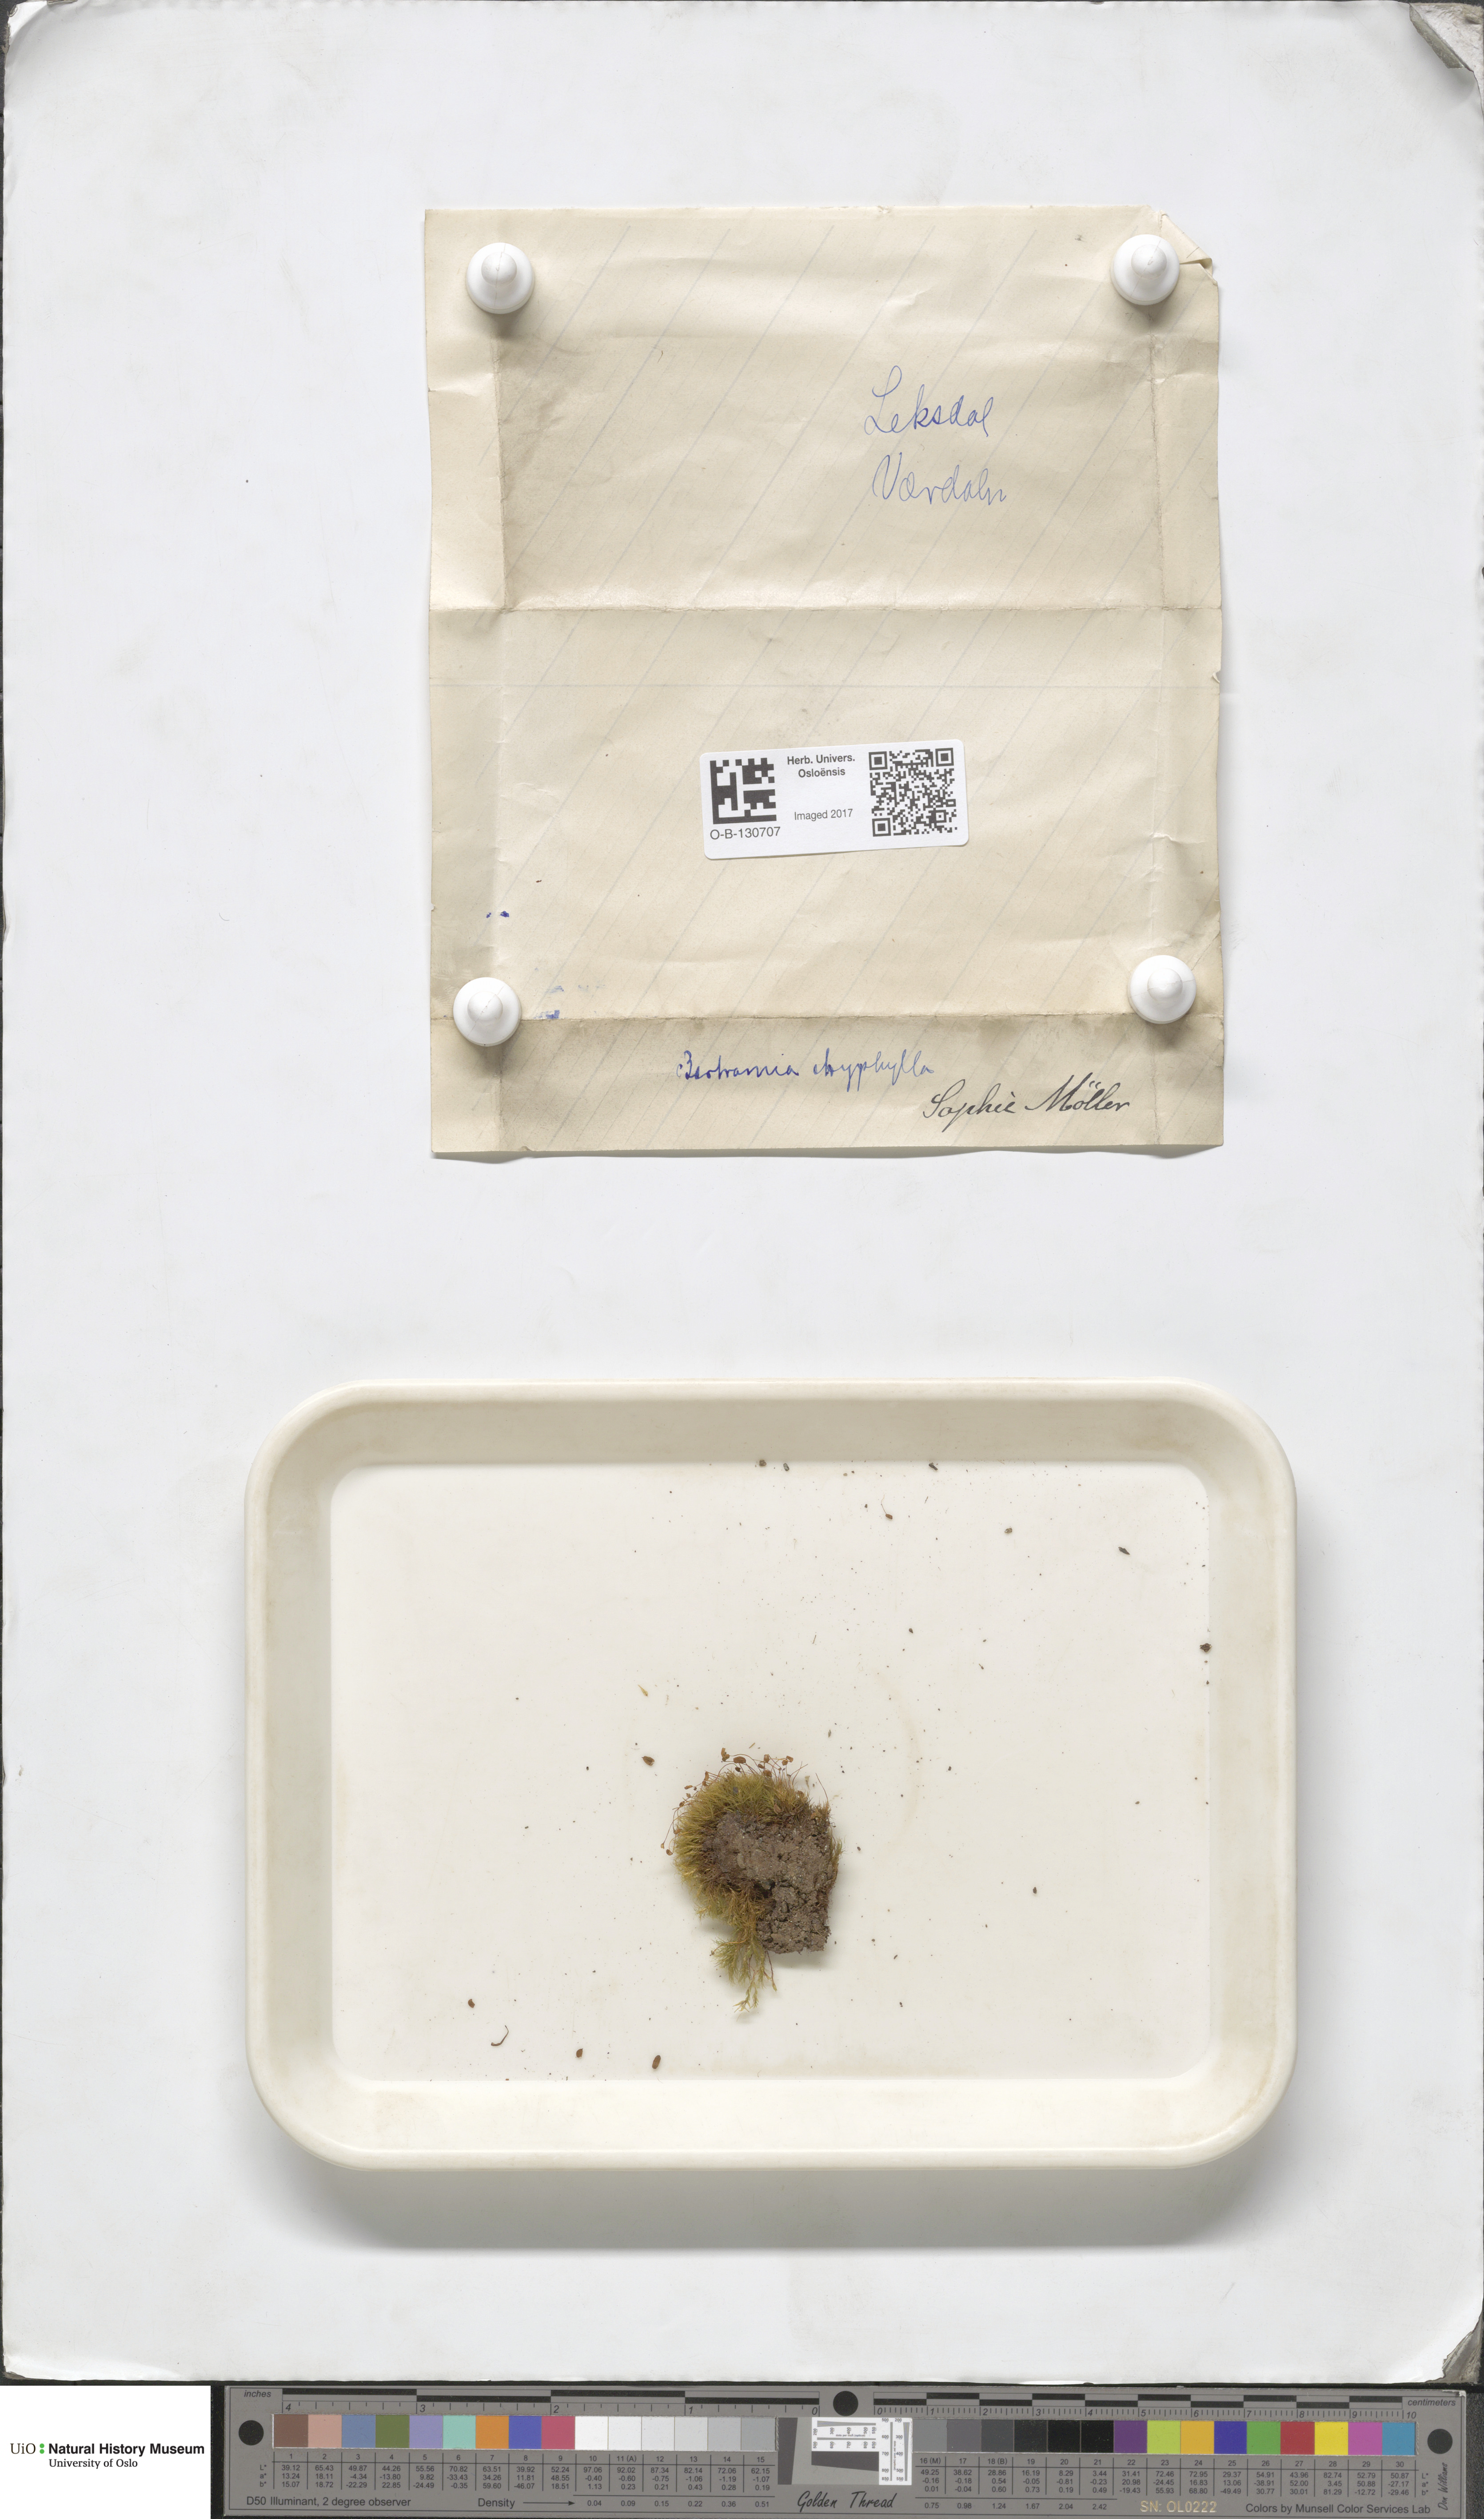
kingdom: Plantae
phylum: Bryophyta
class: Bryopsida
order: Bartramiales
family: Bartramiaceae
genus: Bartramia
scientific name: Bartramia ithyphylla
